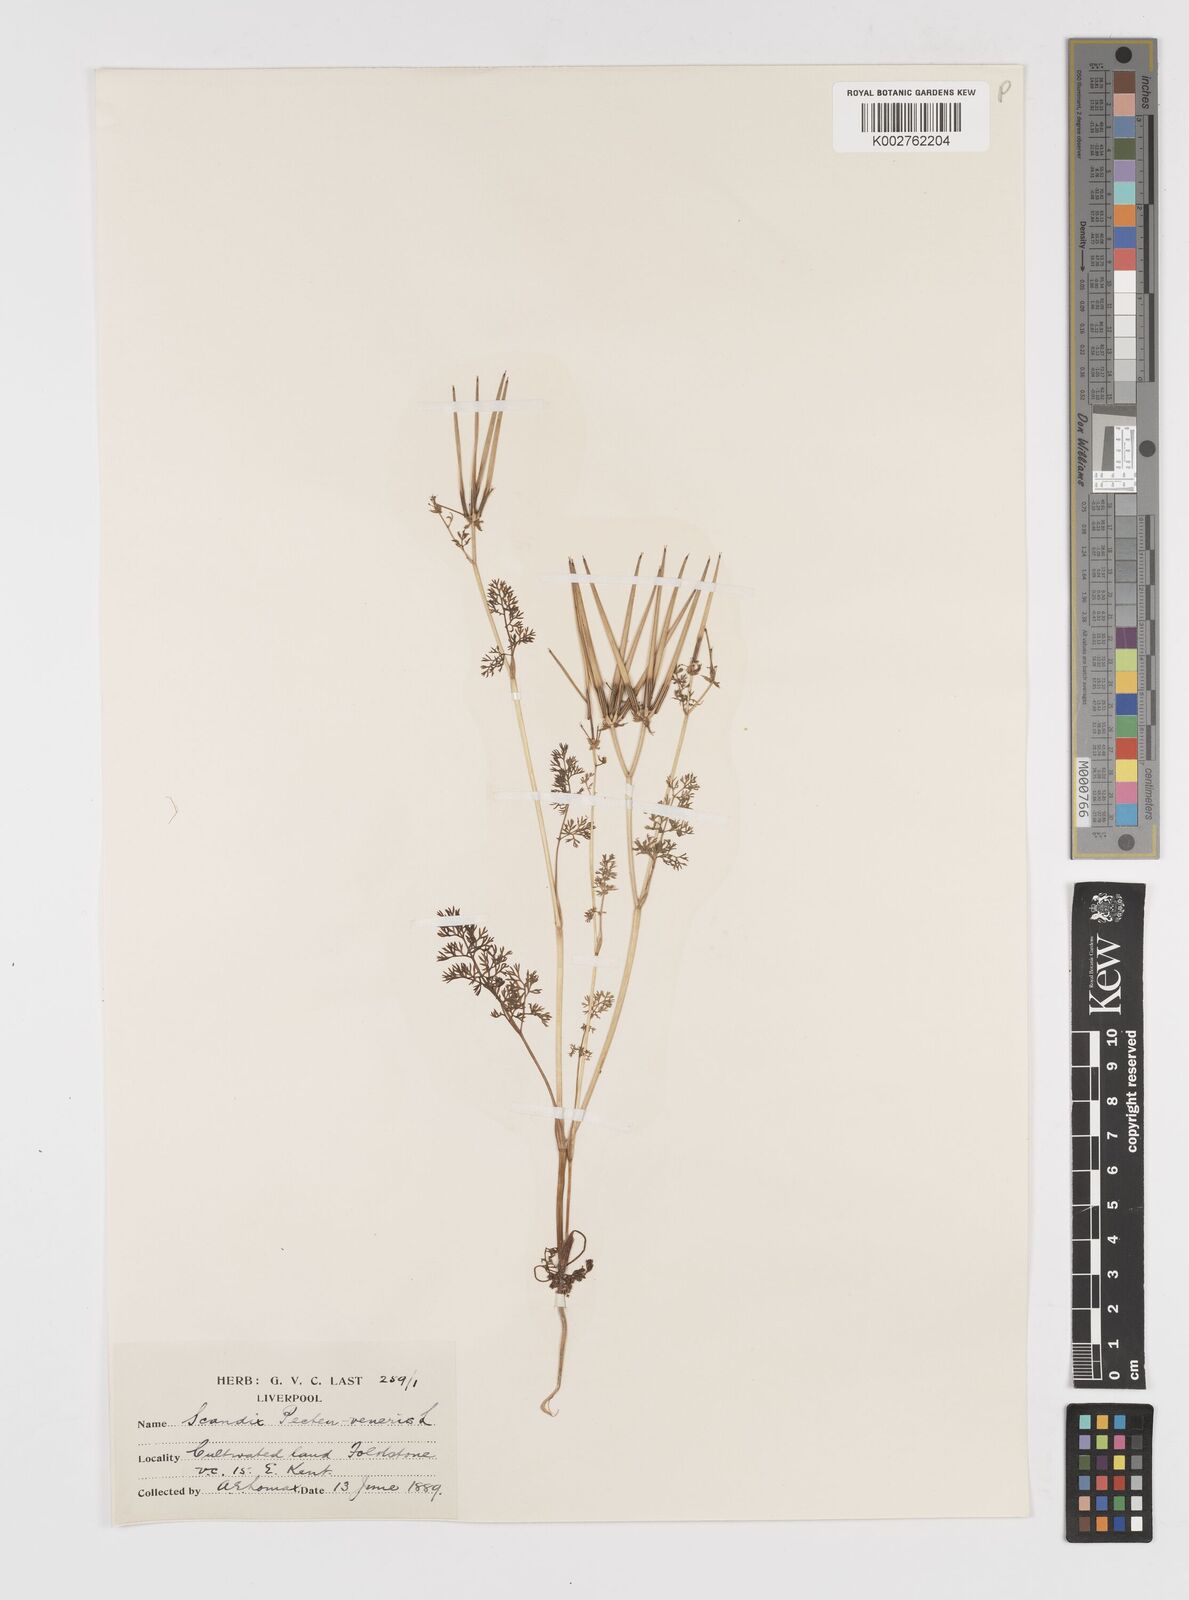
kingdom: Plantae
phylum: Tracheophyta
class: Magnoliopsida
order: Apiales
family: Apiaceae
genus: Scandix
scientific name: Scandix pecten-veneris
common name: Shepherd's-needle
